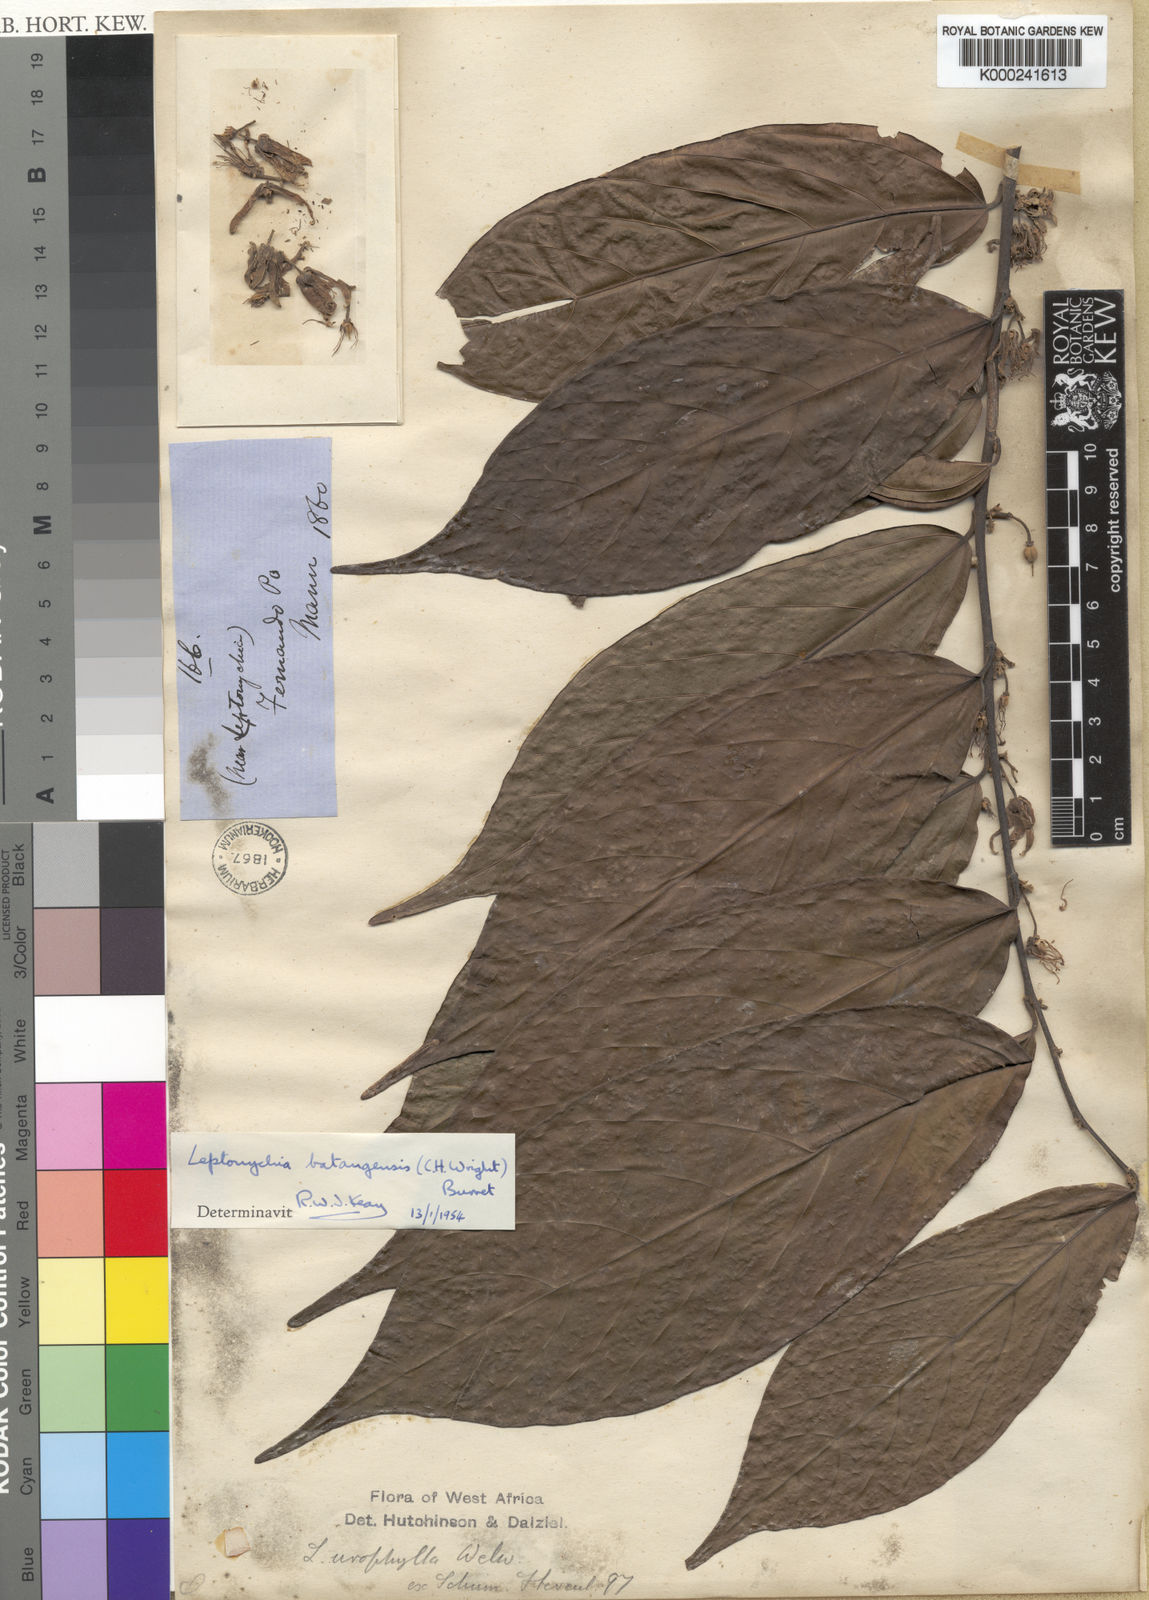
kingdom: Plantae
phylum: Tracheophyta
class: Magnoliopsida
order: Malvales
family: Malvaceae
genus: Leptonychia
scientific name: Leptonychia batangensis
